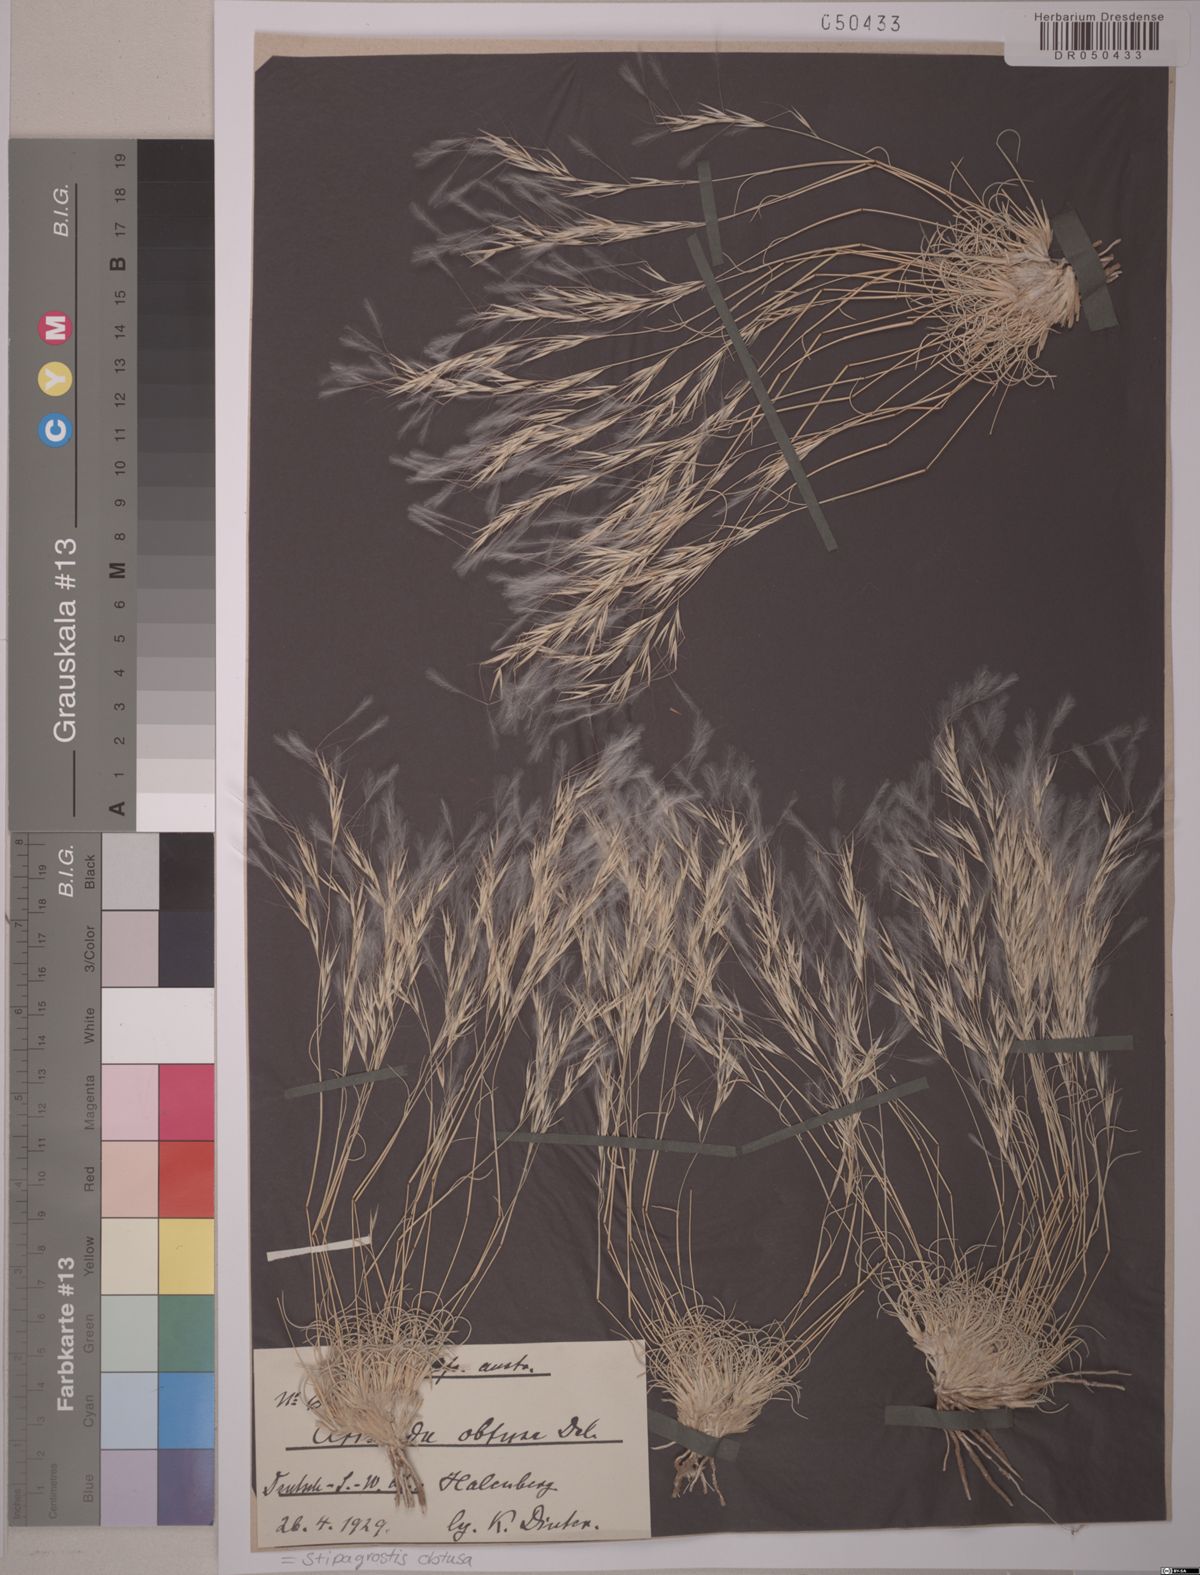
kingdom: Plantae
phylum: Tracheophyta
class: Liliopsida
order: Poales
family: Poaceae
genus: Stipagrostis
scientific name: Stipagrostis obtusa
